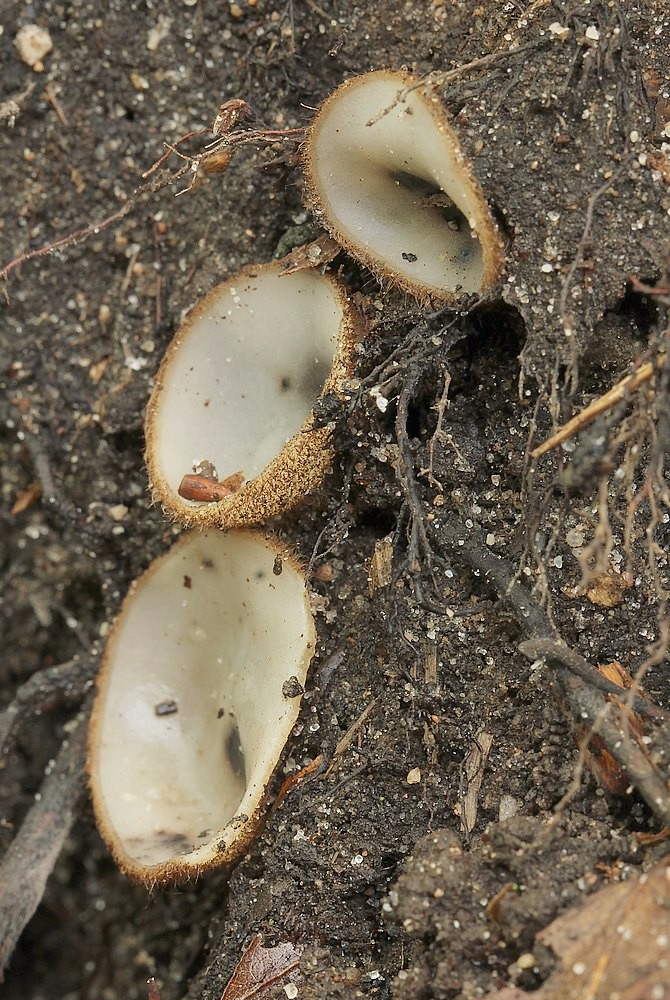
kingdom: Fungi
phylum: Ascomycota
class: Pezizomycetes
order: Pezizales
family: Pyronemataceae
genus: Humaria
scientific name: Humaria hemisphaerica
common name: halvkugleformet børstebæger
